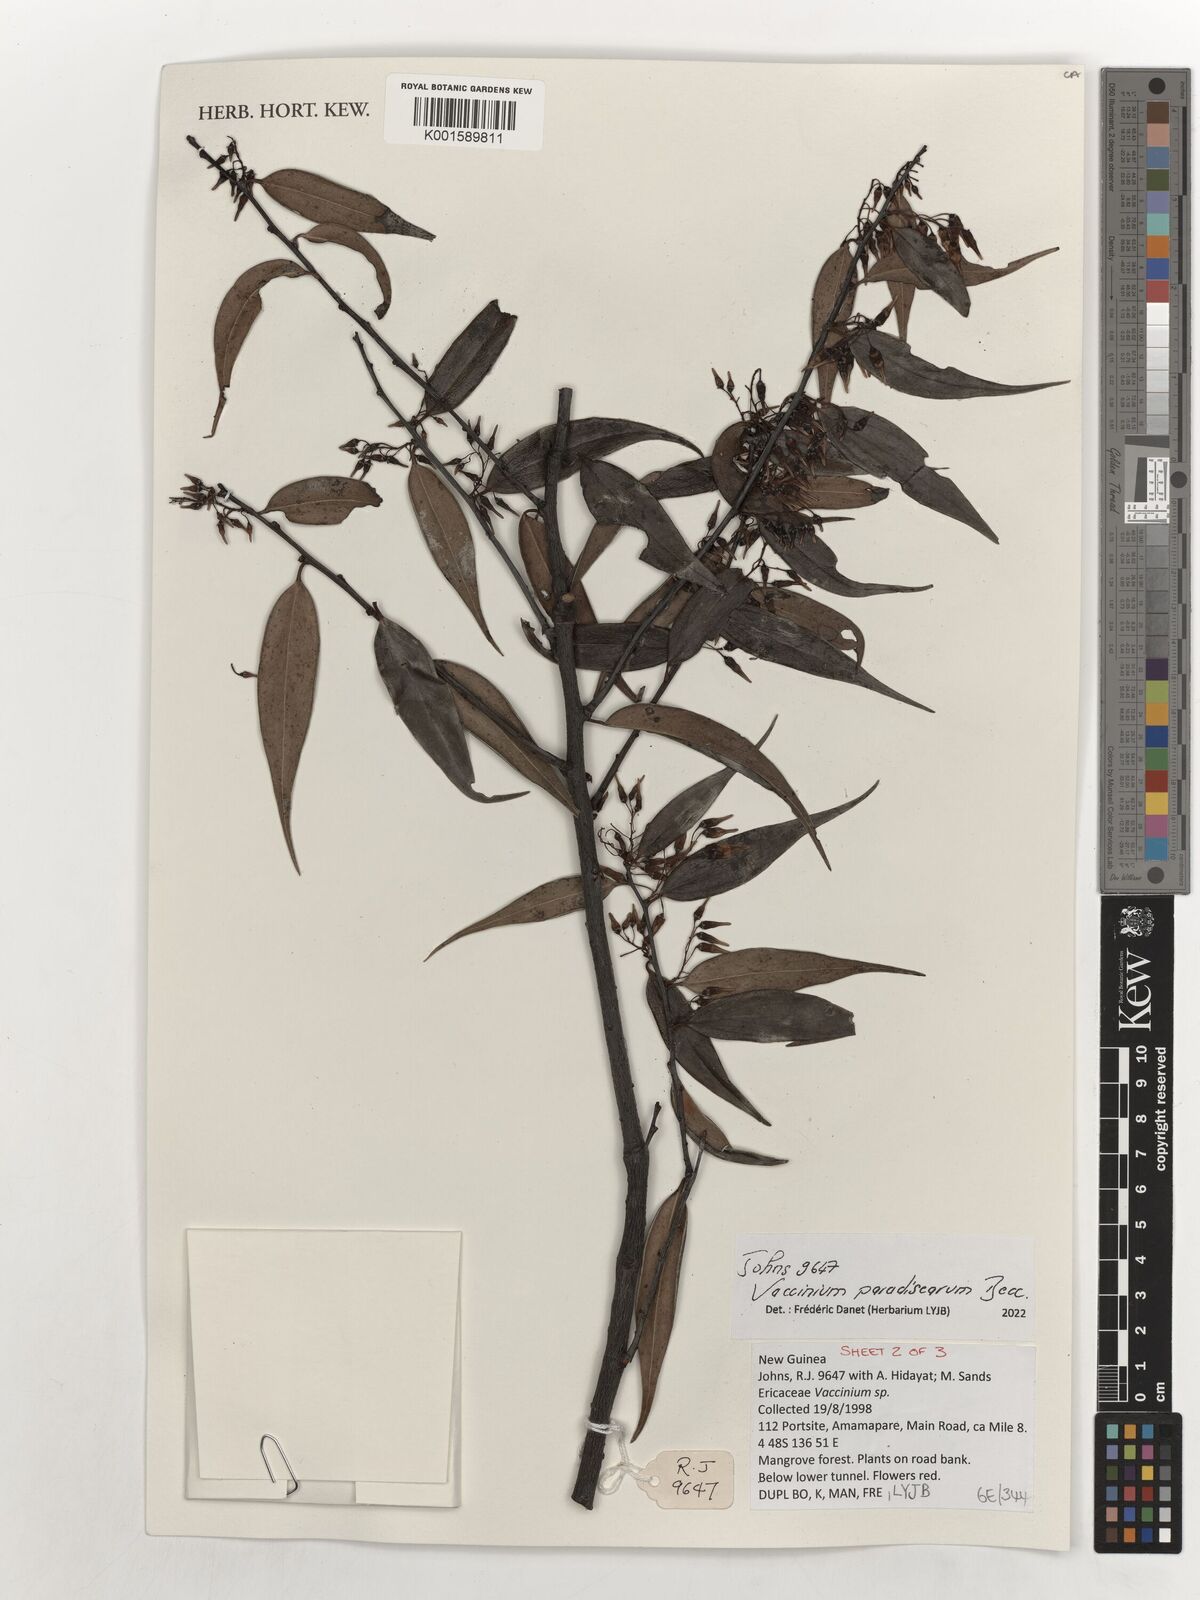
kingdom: Plantae
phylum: Tracheophyta
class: Magnoliopsida
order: Ericales
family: Ericaceae
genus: Vaccinium
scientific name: Vaccinium paradisearum
